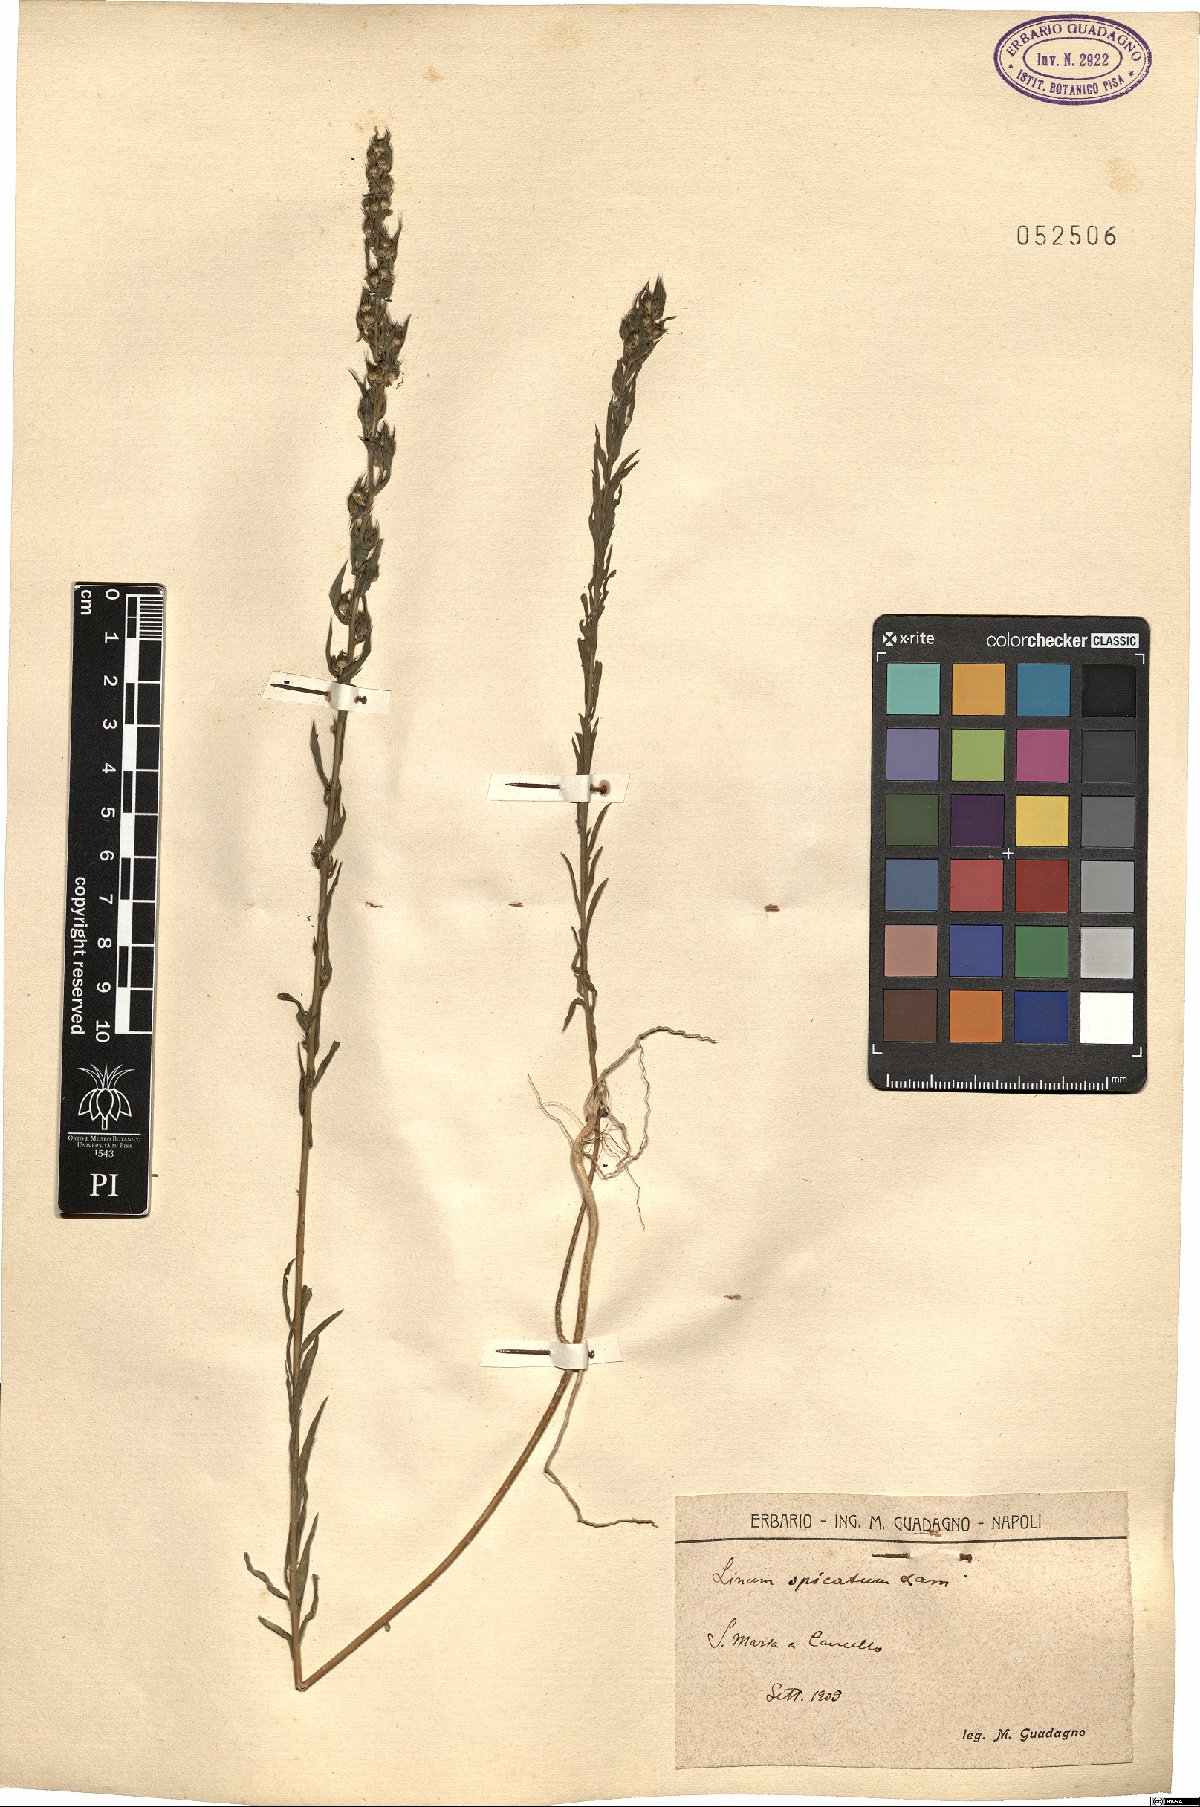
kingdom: Plantae
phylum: Tracheophyta
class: Magnoliopsida
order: Malpighiales
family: Linaceae
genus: Linum
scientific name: Linum strictum
